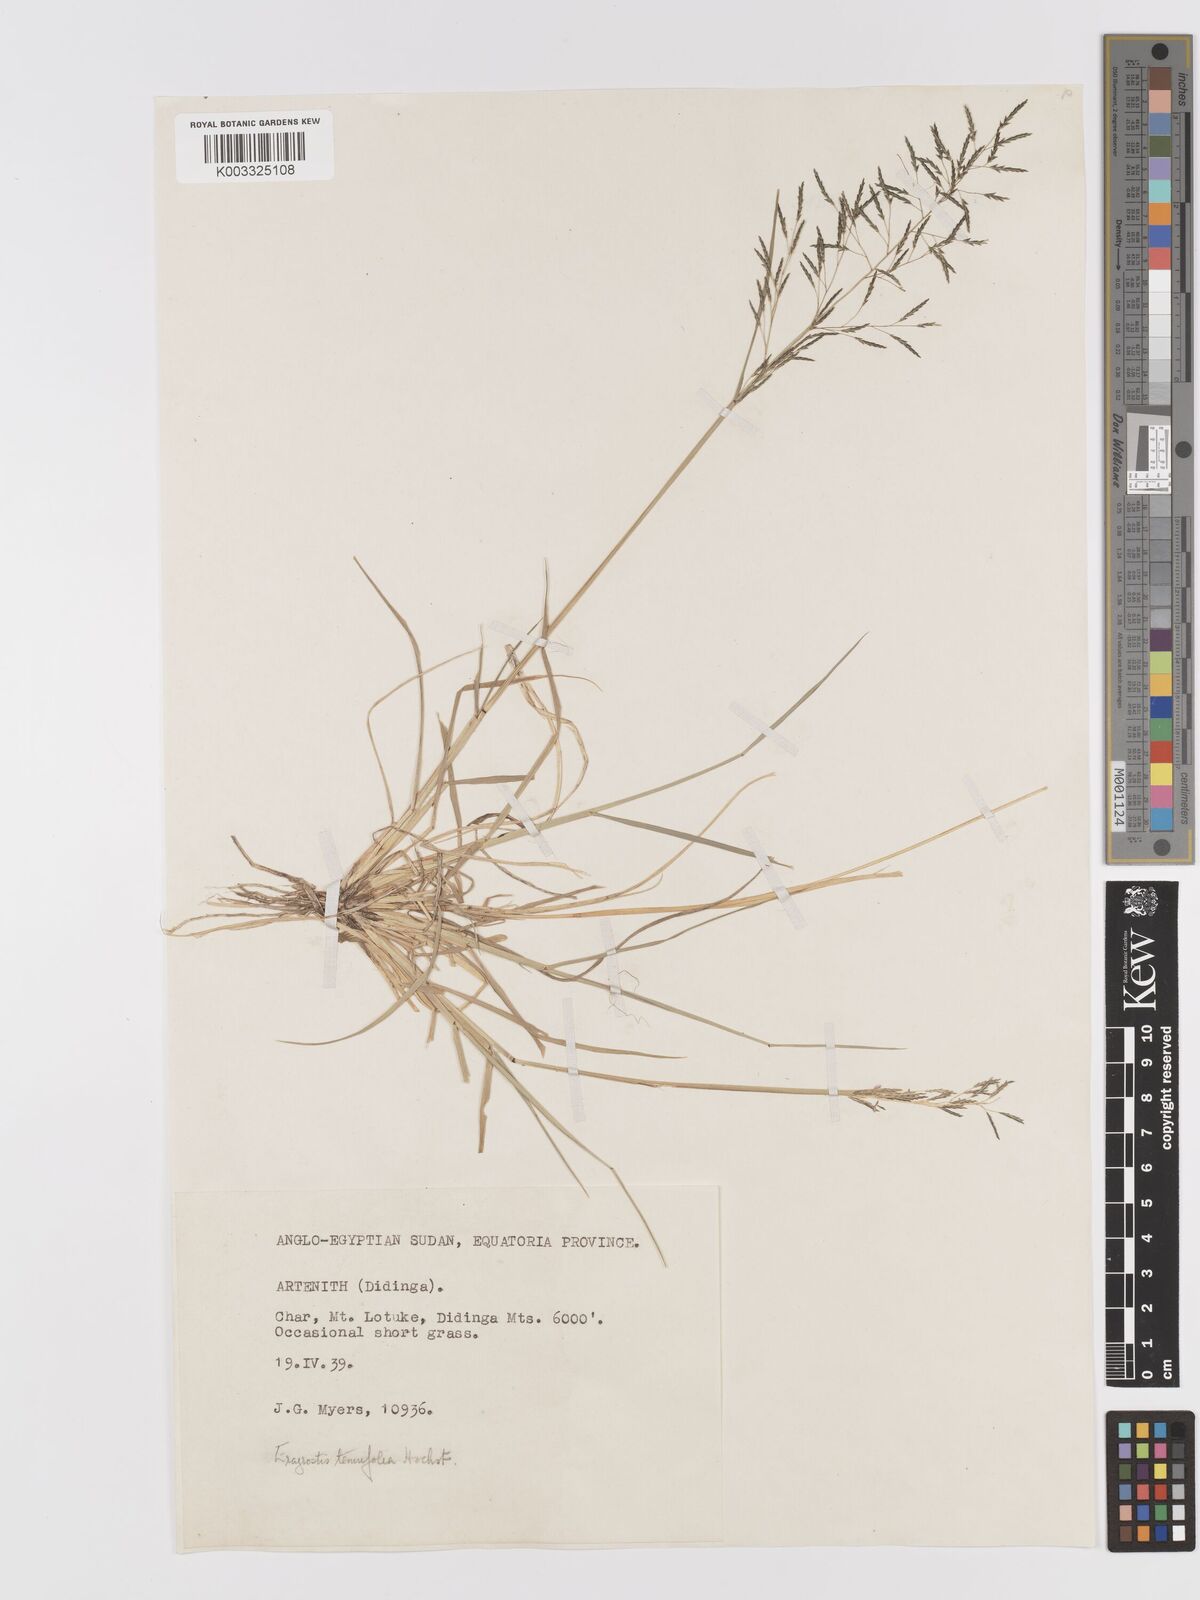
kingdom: Plantae
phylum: Tracheophyta
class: Liliopsida
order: Poales
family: Poaceae
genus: Eragrostis
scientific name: Eragrostis tenuifolia
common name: Elastic grass
